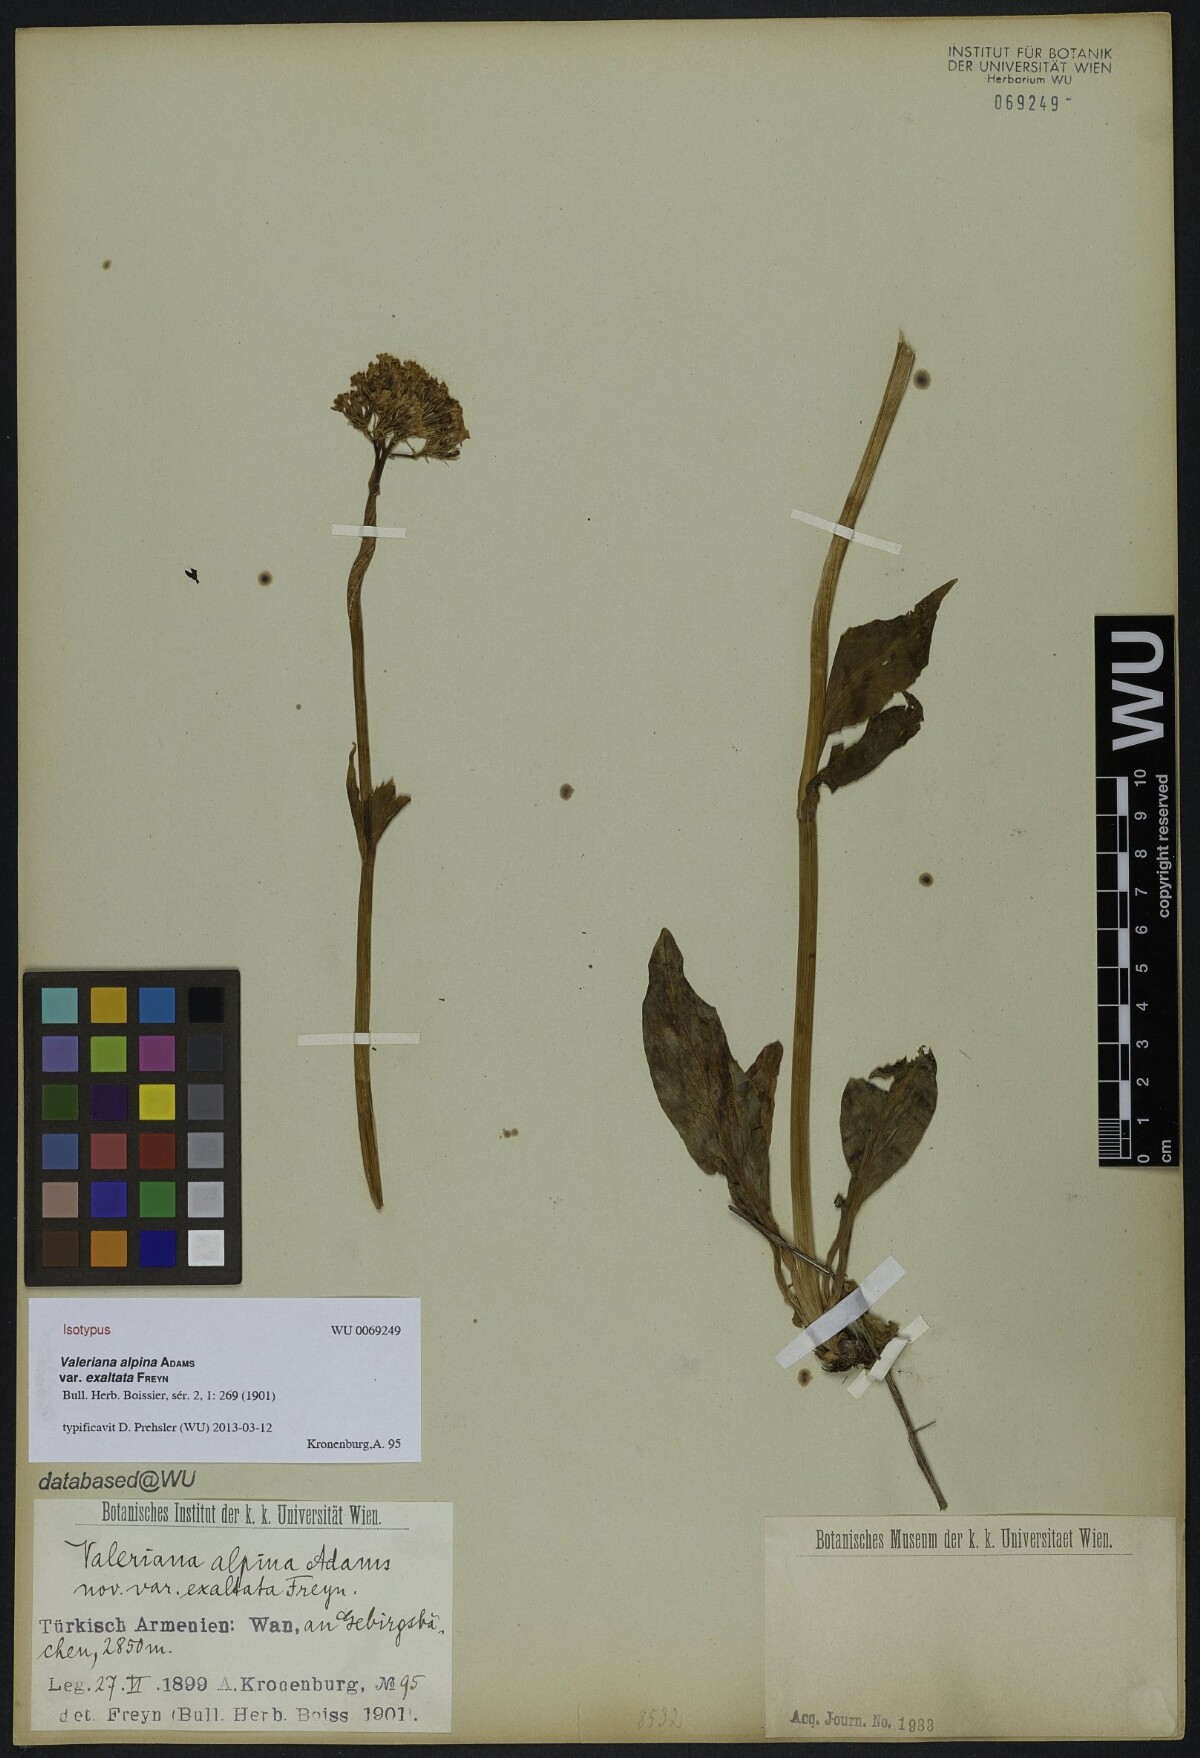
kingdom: Plantae
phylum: Tracheophyta
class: Magnoliopsida
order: Dipsacales
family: Caprifoliaceae
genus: Valeriana
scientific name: Valeriana alpestris
